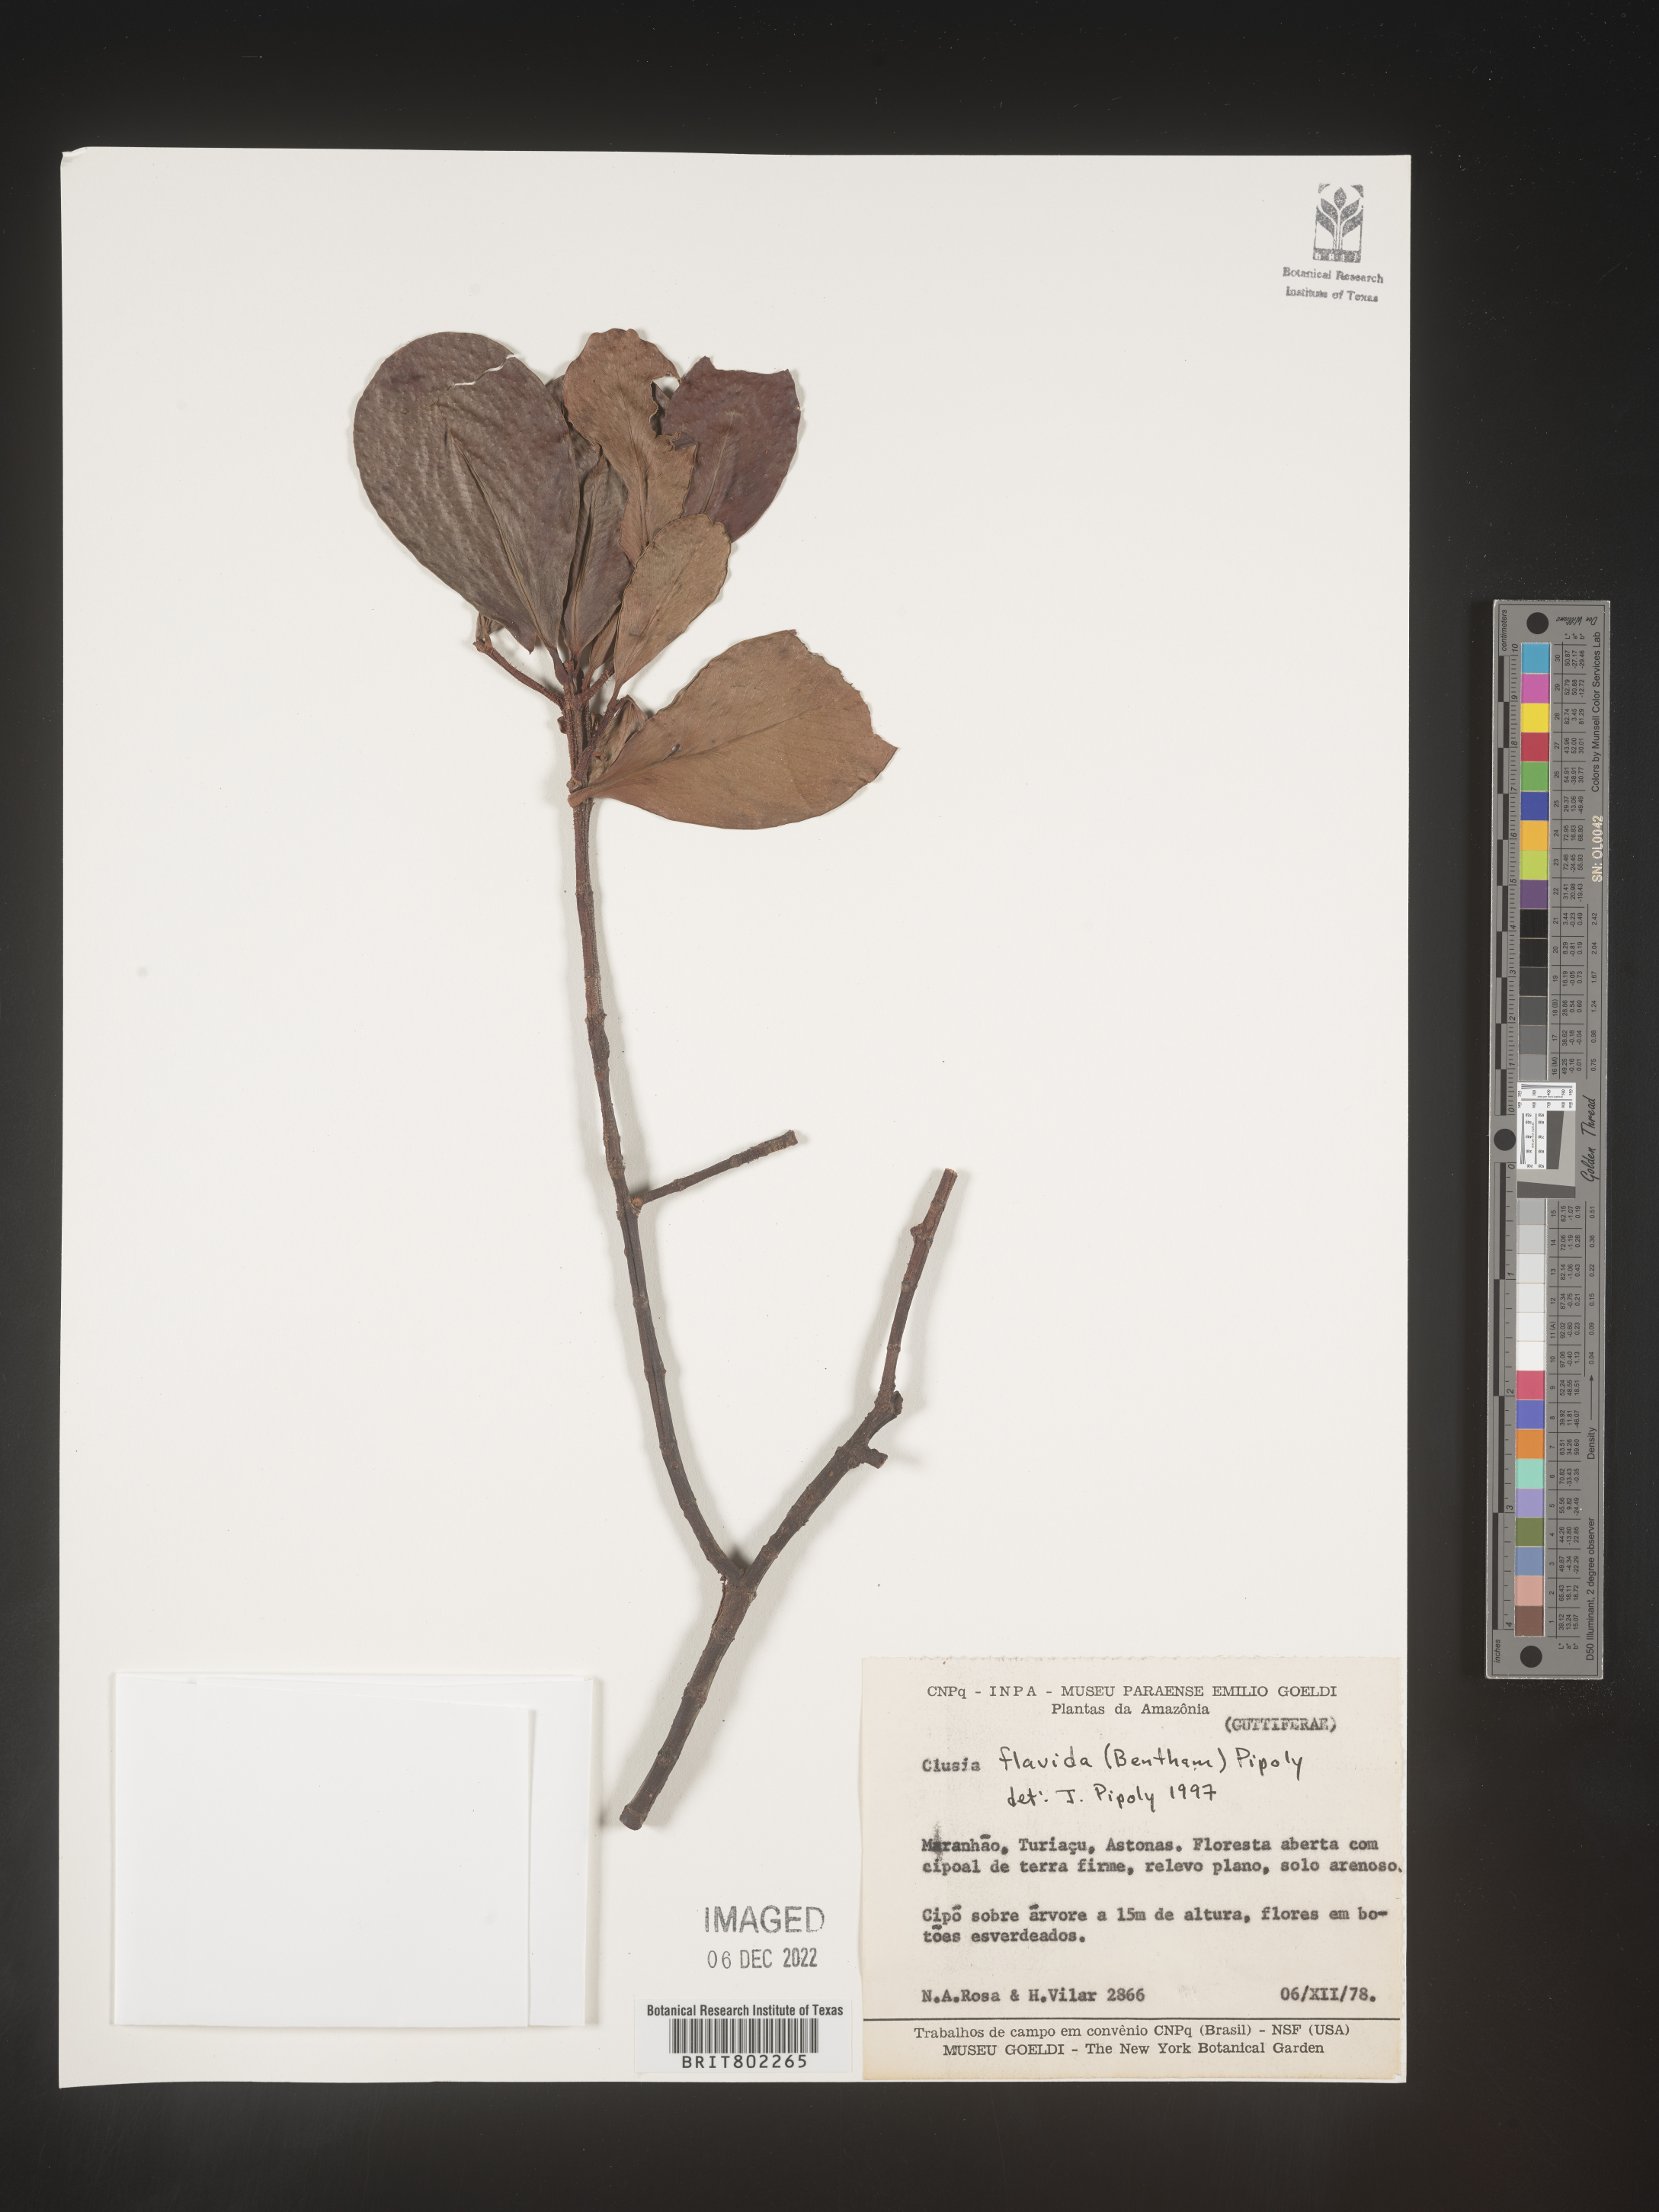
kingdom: Plantae
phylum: Tracheophyta
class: Magnoliopsida
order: Malpighiales
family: Clusiaceae
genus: Clusia
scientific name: Clusia flavida
